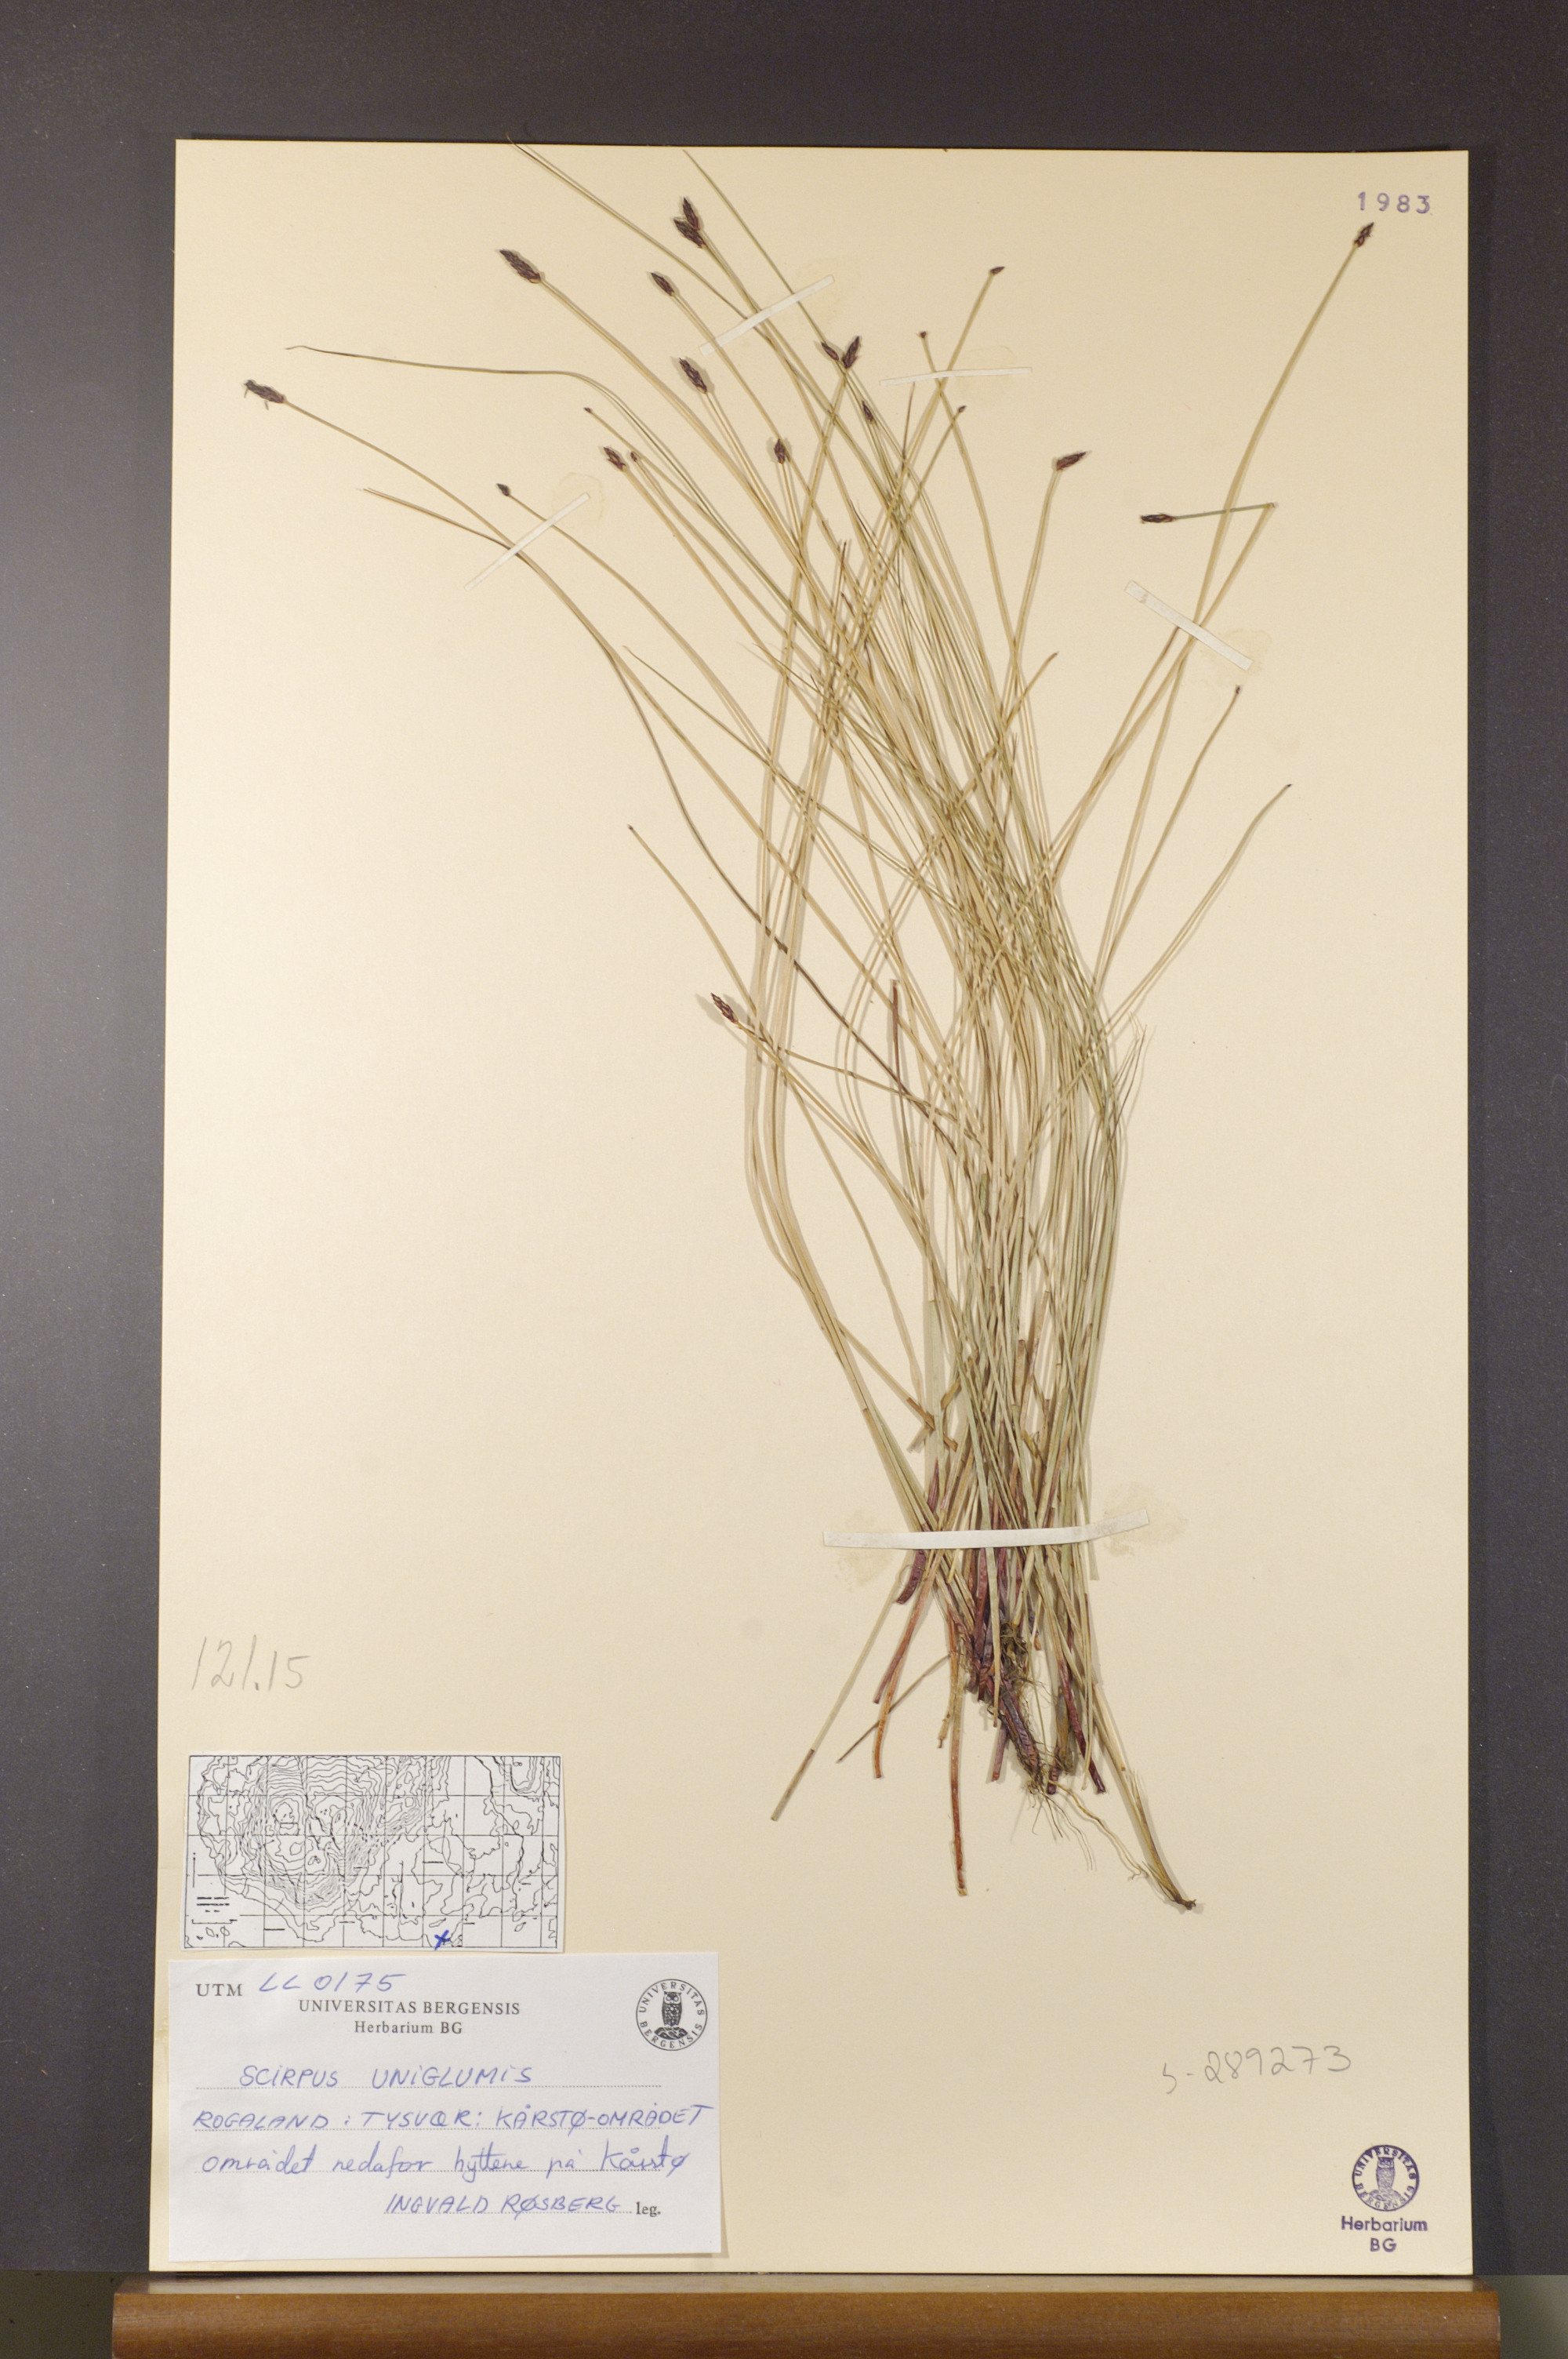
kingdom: Plantae
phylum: Tracheophyta
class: Liliopsida
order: Poales
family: Cyperaceae
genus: Eleocharis
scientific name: Eleocharis uniglumis
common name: Slender spike-rush
